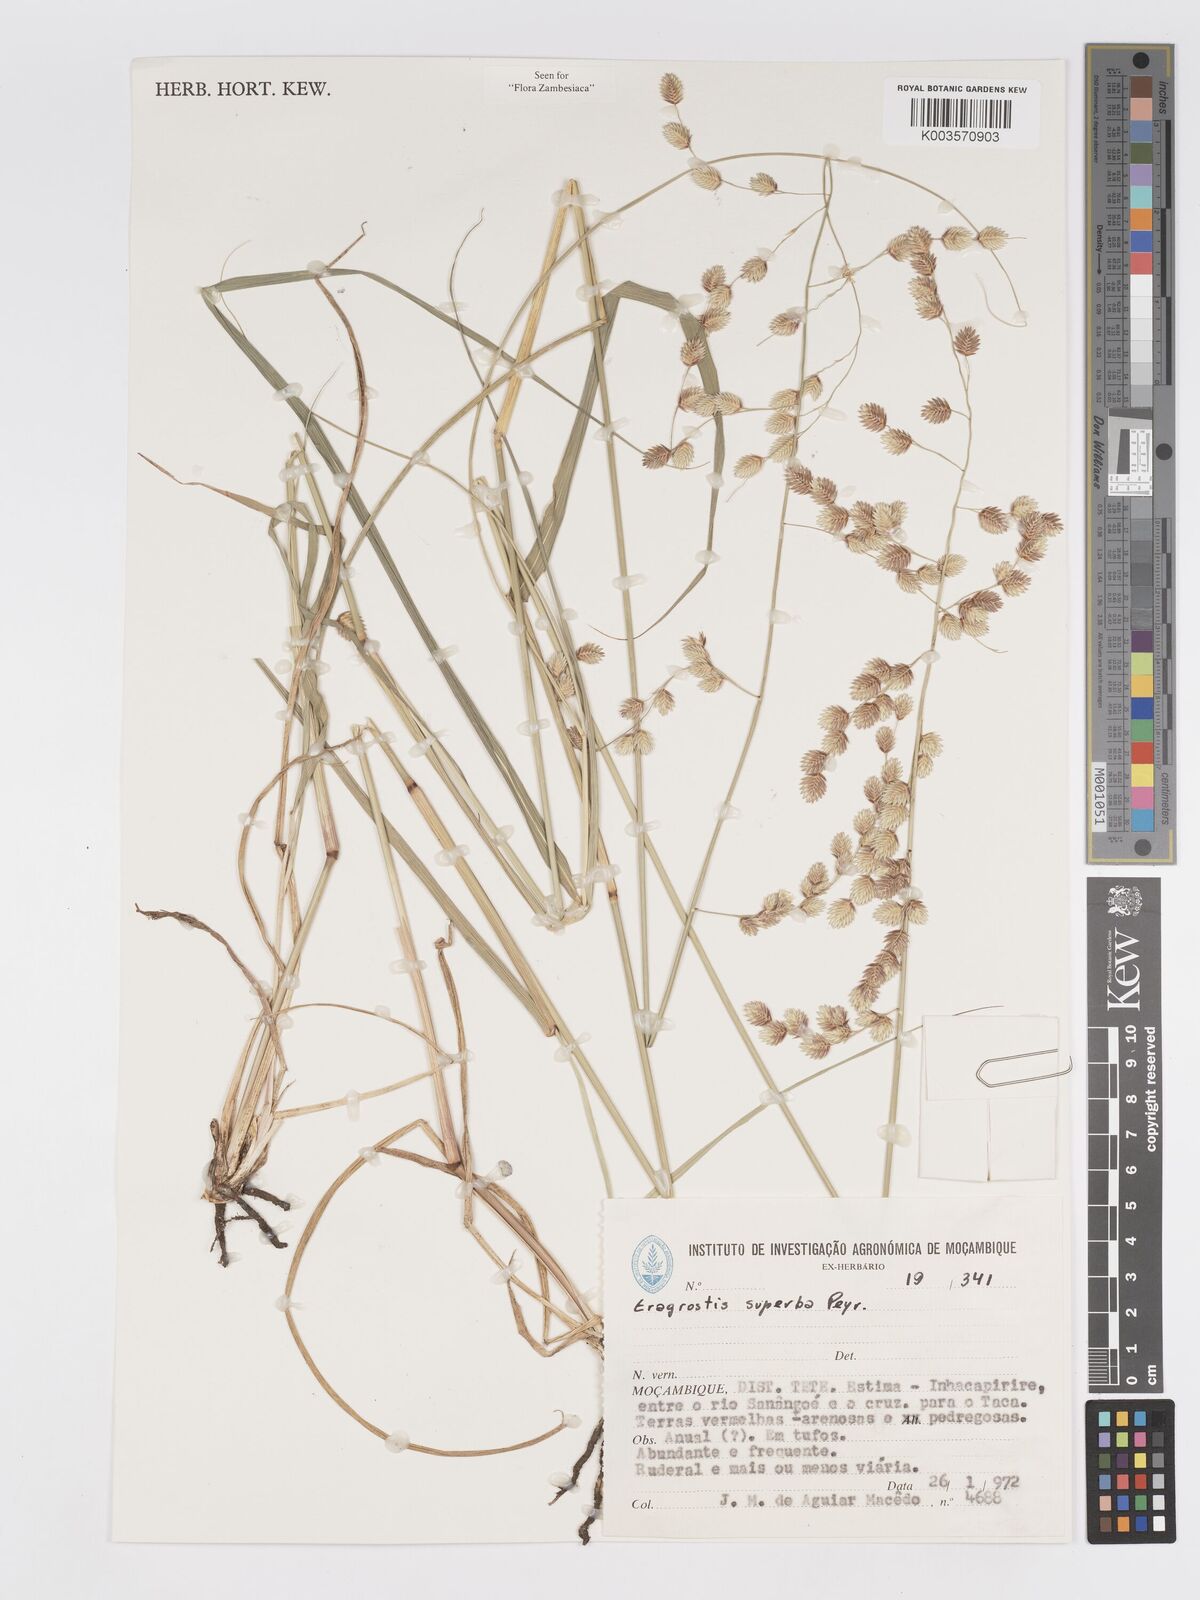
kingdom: Plantae
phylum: Tracheophyta
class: Liliopsida
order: Poales
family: Poaceae
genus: Eragrostis
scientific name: Eragrostis superba
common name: Wilman lovegrass
